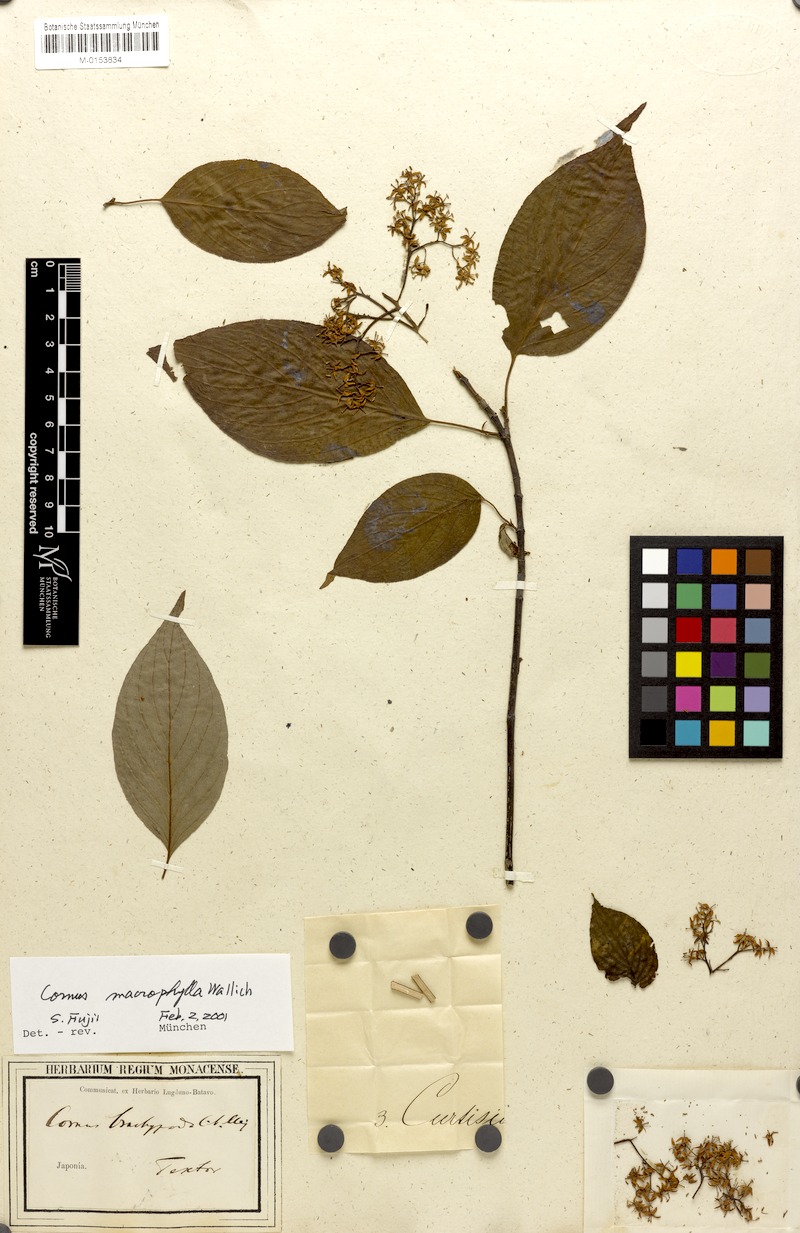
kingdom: Plantae
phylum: Tracheophyta
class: Magnoliopsida
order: Cornales
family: Cornaceae
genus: Cornus
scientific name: Cornus macrophylla
